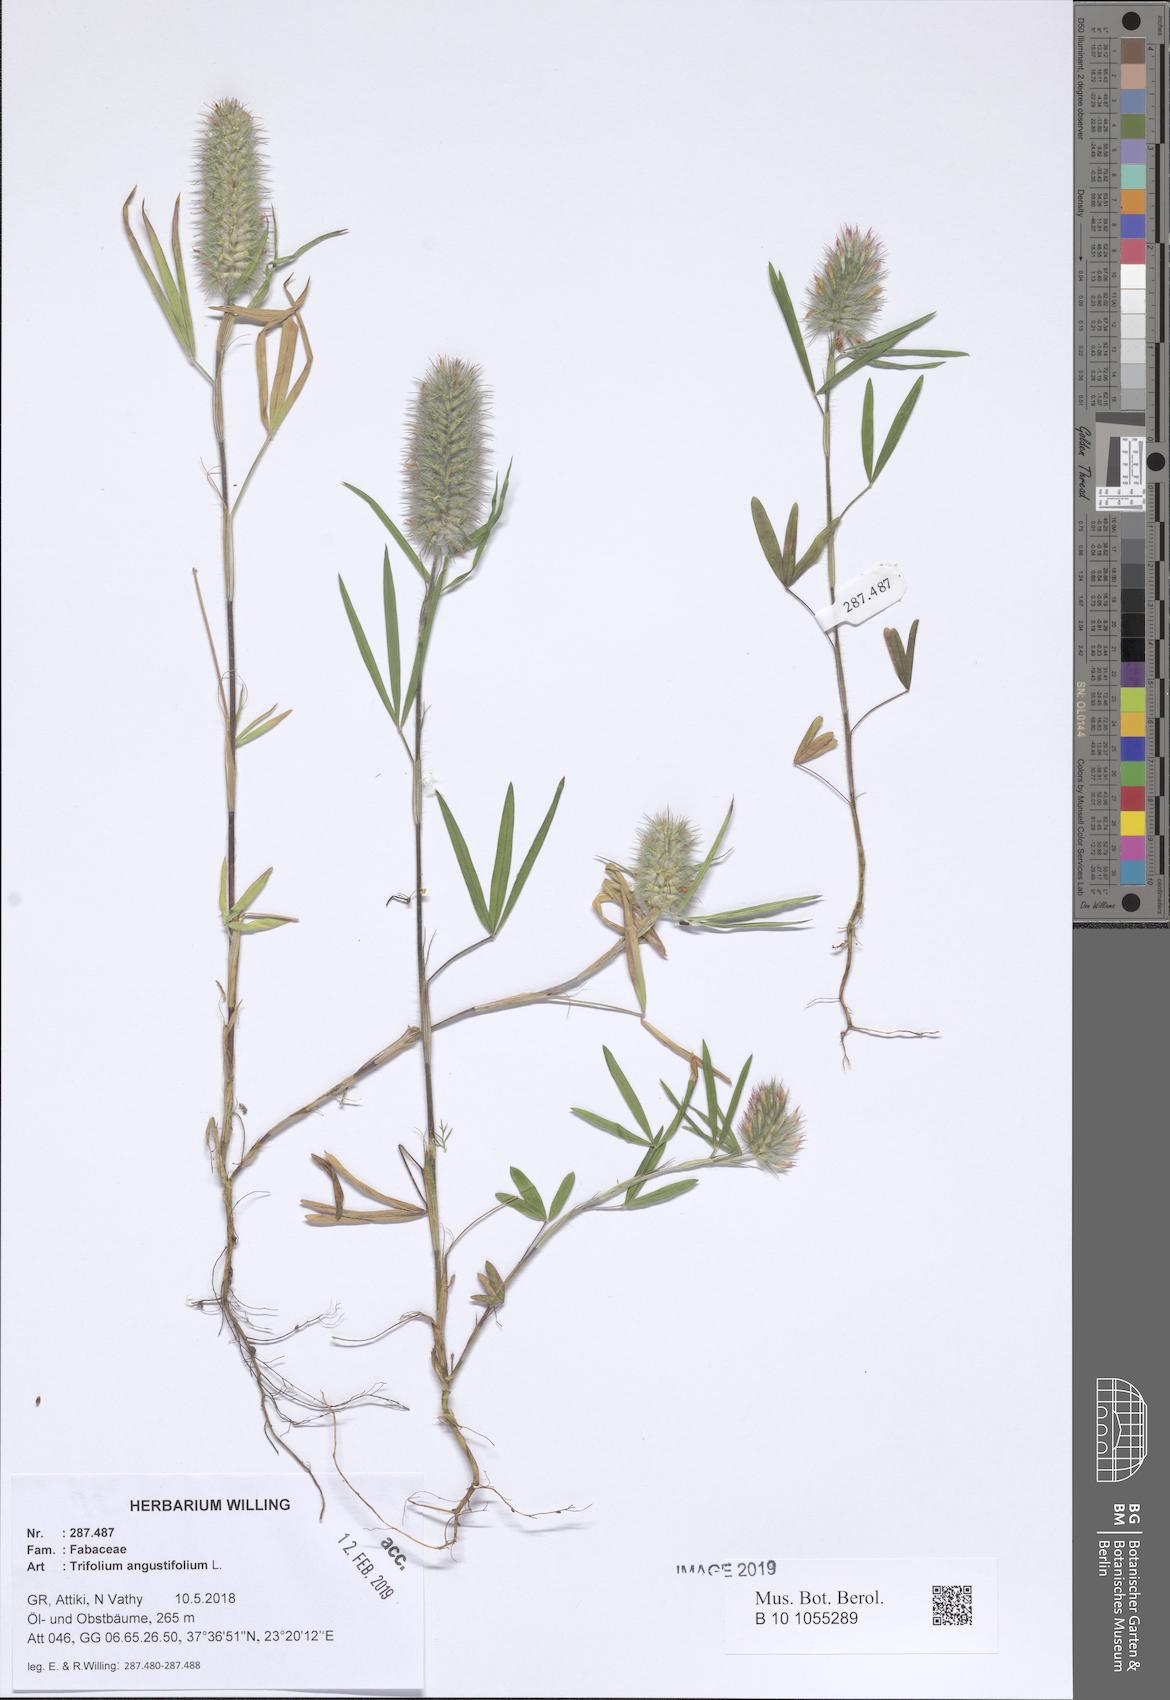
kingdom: Plantae
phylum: Tracheophyta
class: Magnoliopsida
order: Fabales
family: Fabaceae
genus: Trifolium
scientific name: Trifolium angustifolium
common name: Narrow clover
